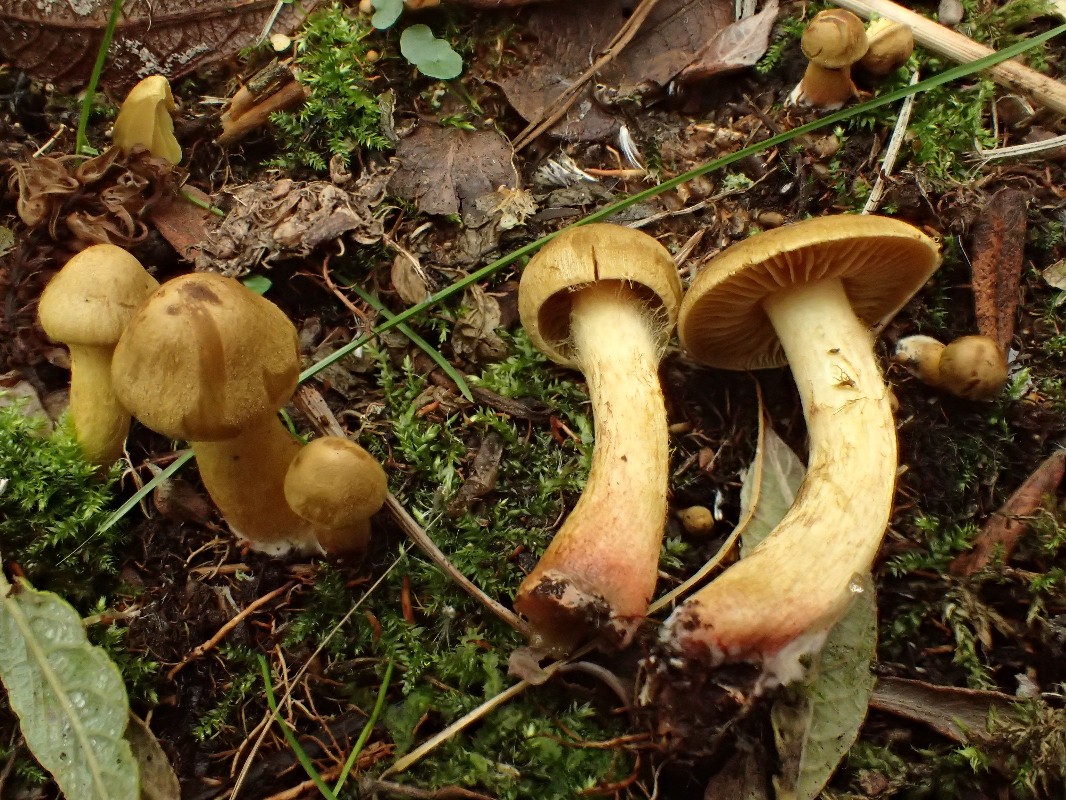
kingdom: Fungi
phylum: Basidiomycota
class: Agaricomycetes
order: Agaricales
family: Cortinariaceae
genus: Cortinarius
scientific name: Cortinarius uliginosus
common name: Marsh webcap
